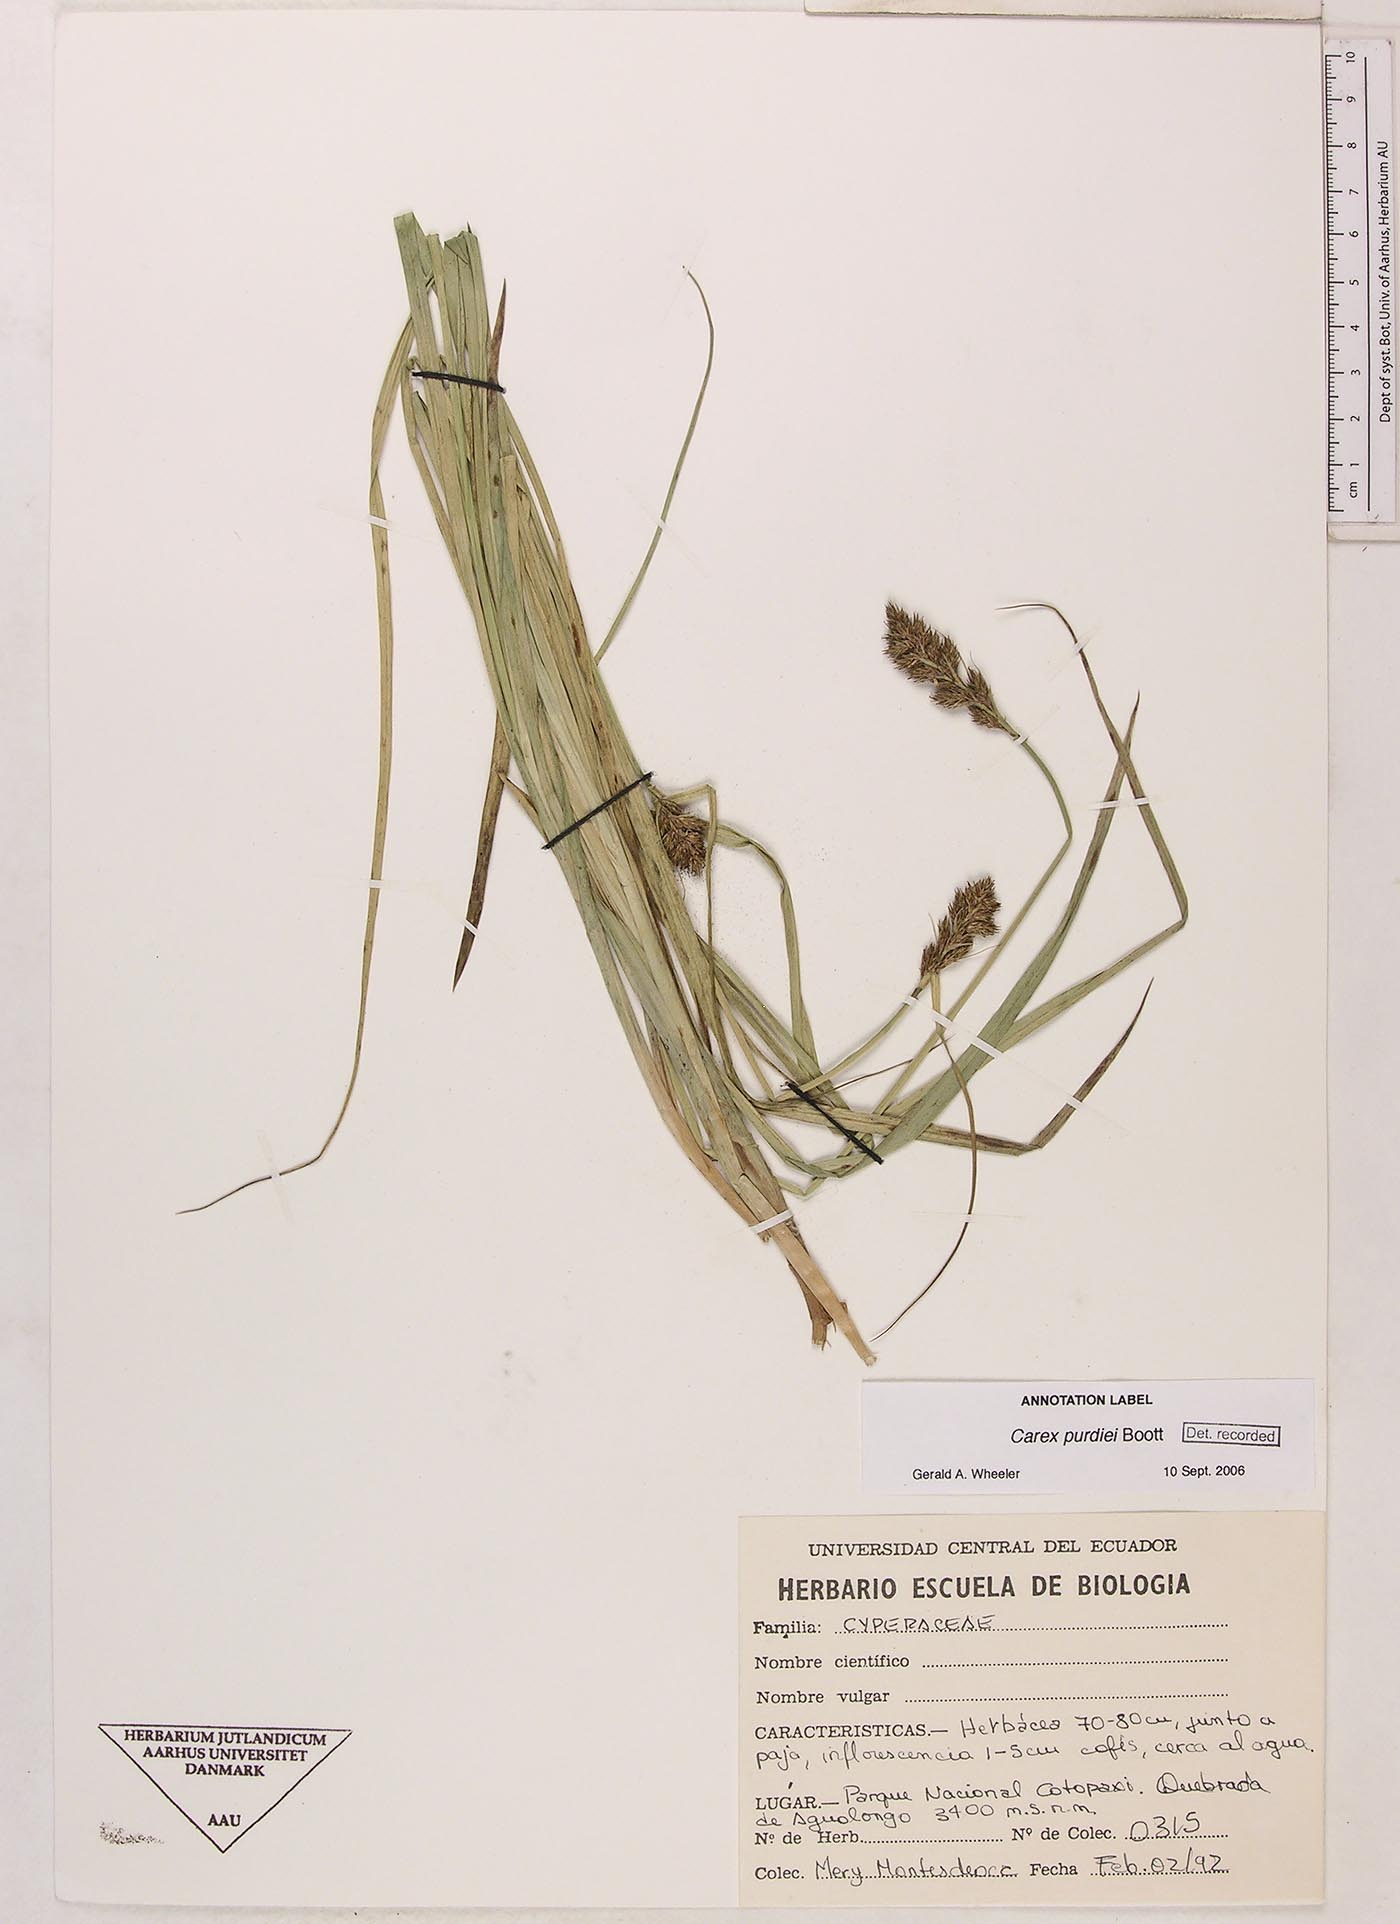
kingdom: Plantae
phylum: Tracheophyta
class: Liliopsida
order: Poales
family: Cyperaceae
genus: Carex
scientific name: Carex purdiei
